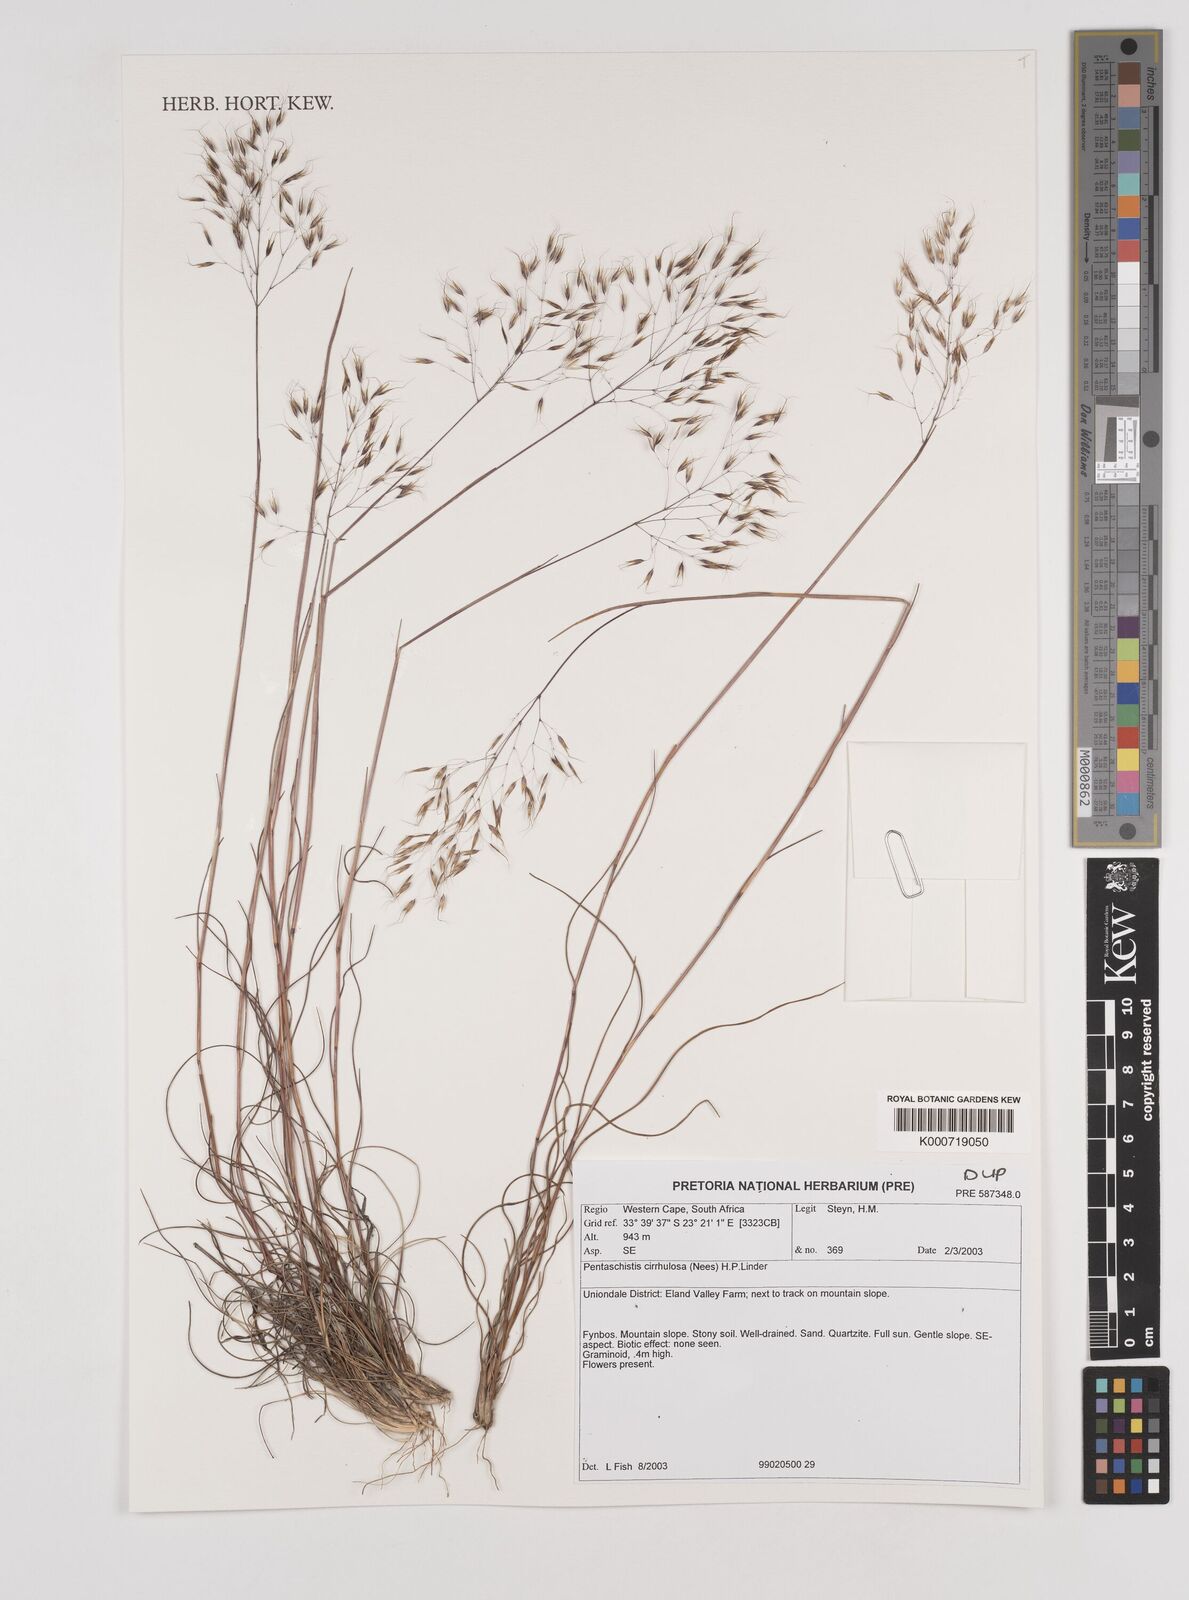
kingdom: Plantae
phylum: Tracheophyta
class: Liliopsida
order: Poales
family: Poaceae
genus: Pentameris
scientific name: Pentameris cirrhulosa
